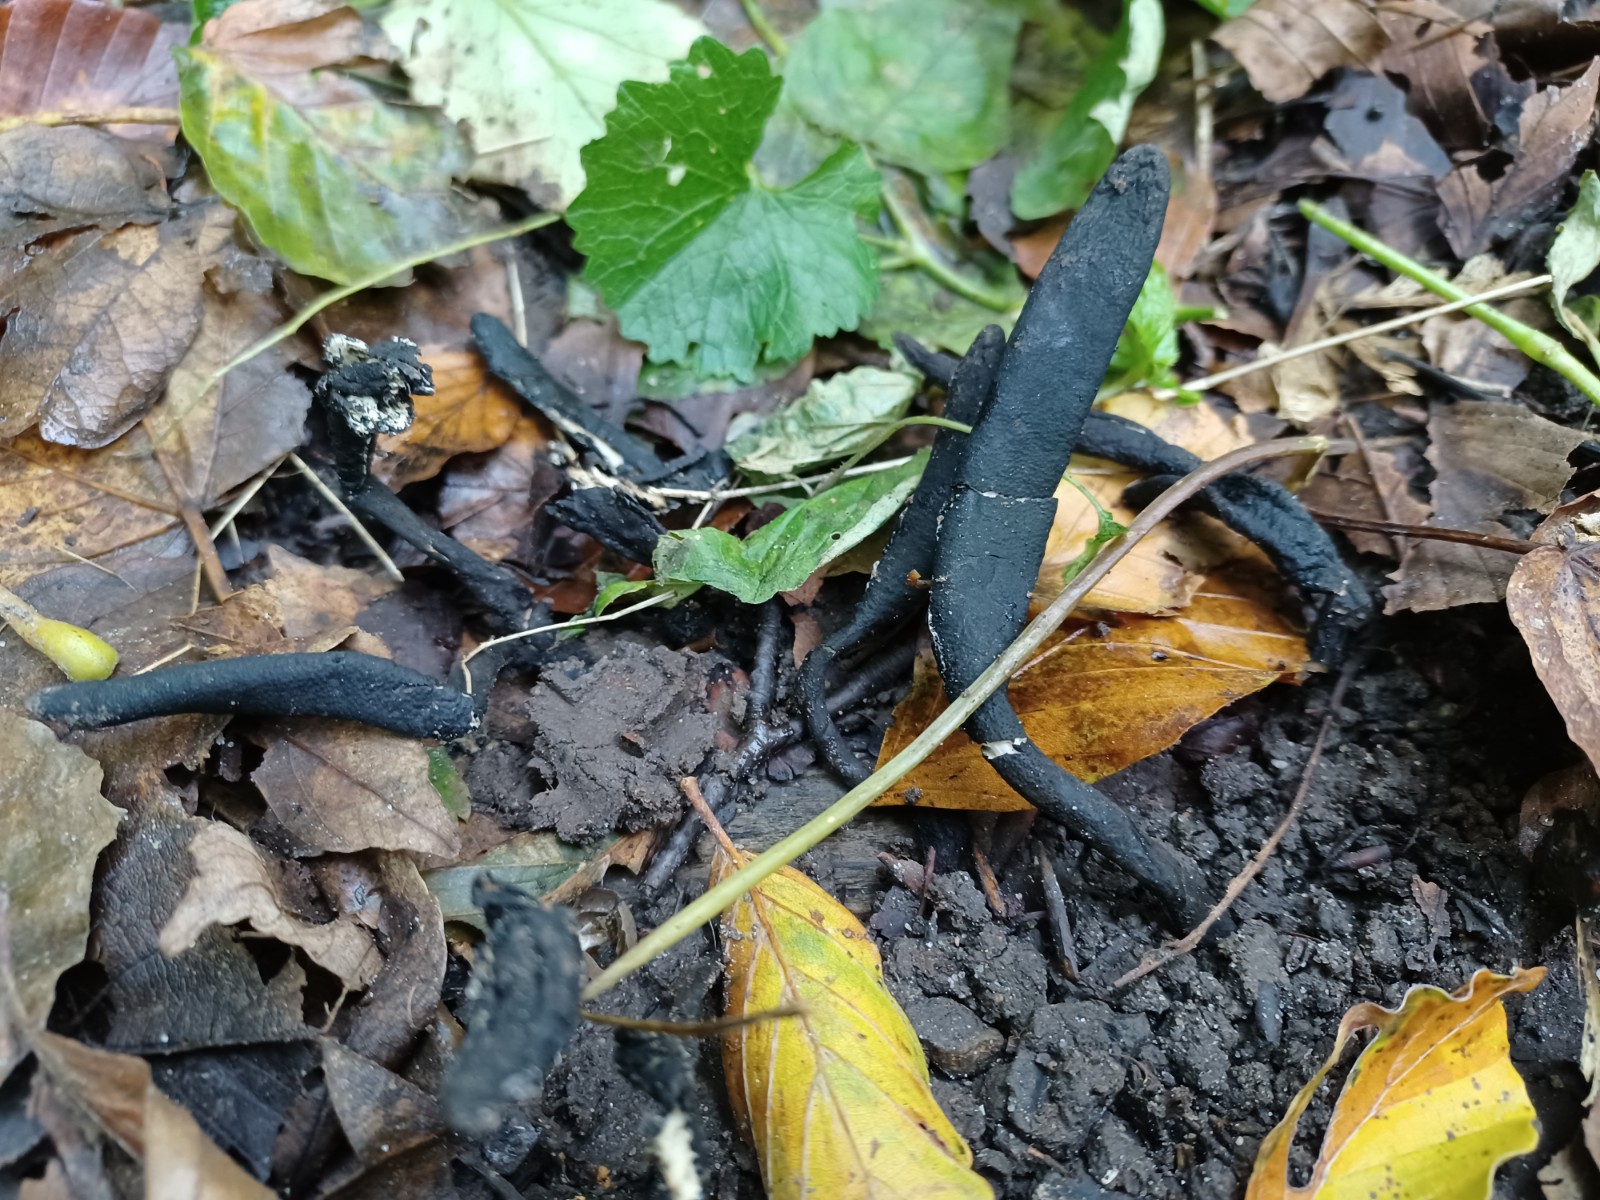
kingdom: Fungi
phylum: Ascomycota
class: Sordariomycetes
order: Xylariales
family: Xylariaceae
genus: Xylaria
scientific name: Xylaria longipes
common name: slank stødsvamp
